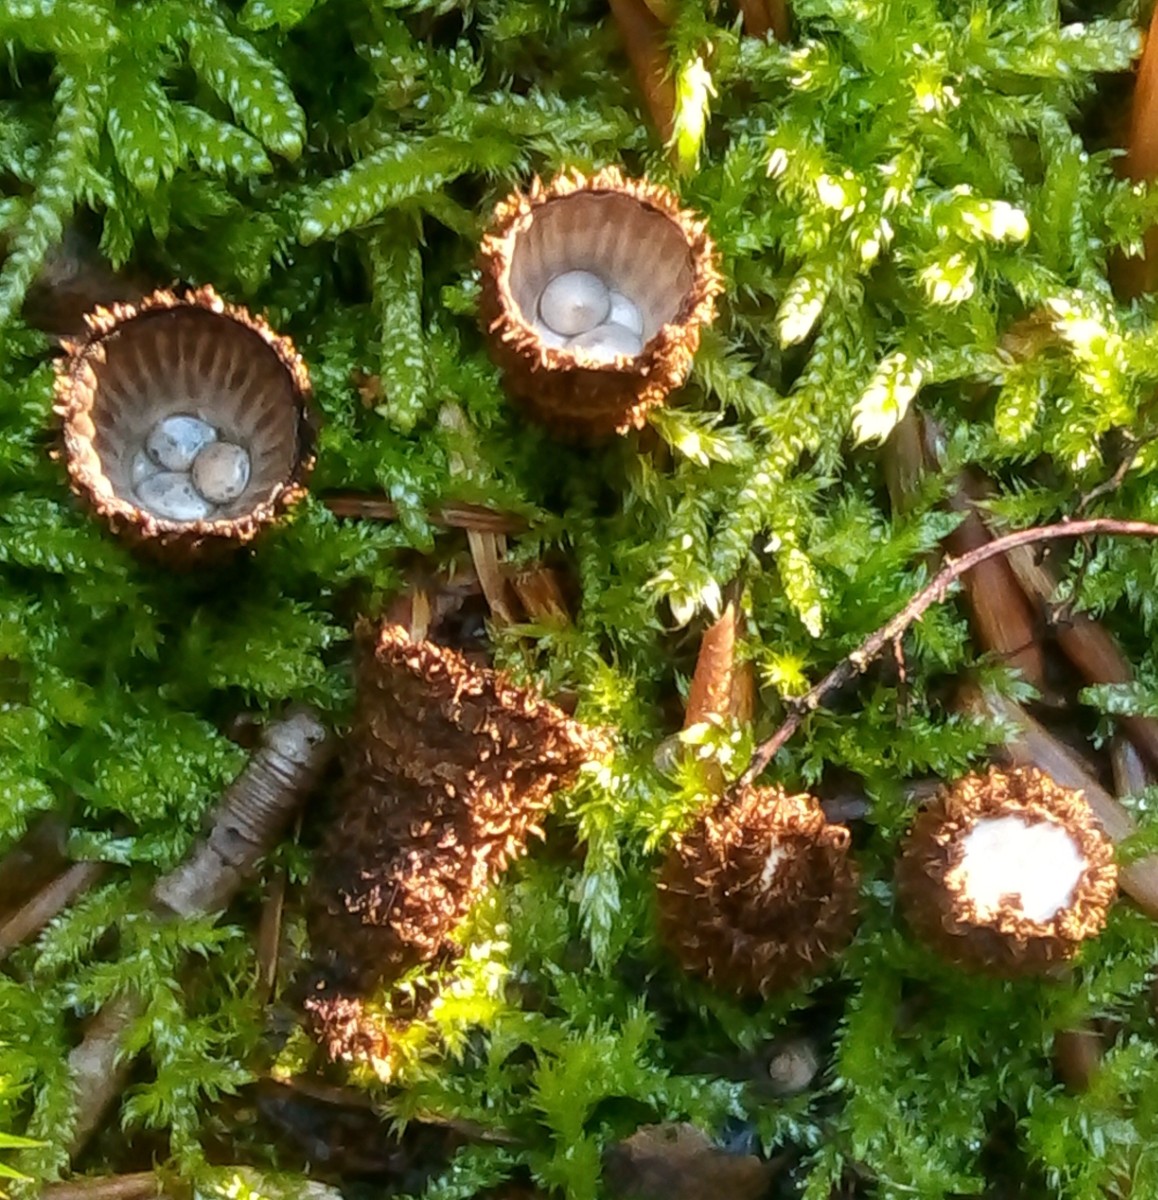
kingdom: Fungi
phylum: Basidiomycota
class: Agaricomycetes
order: Agaricales
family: Agaricaceae
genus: Cyathus
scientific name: Cyathus striatus
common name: stribet redesvamp
